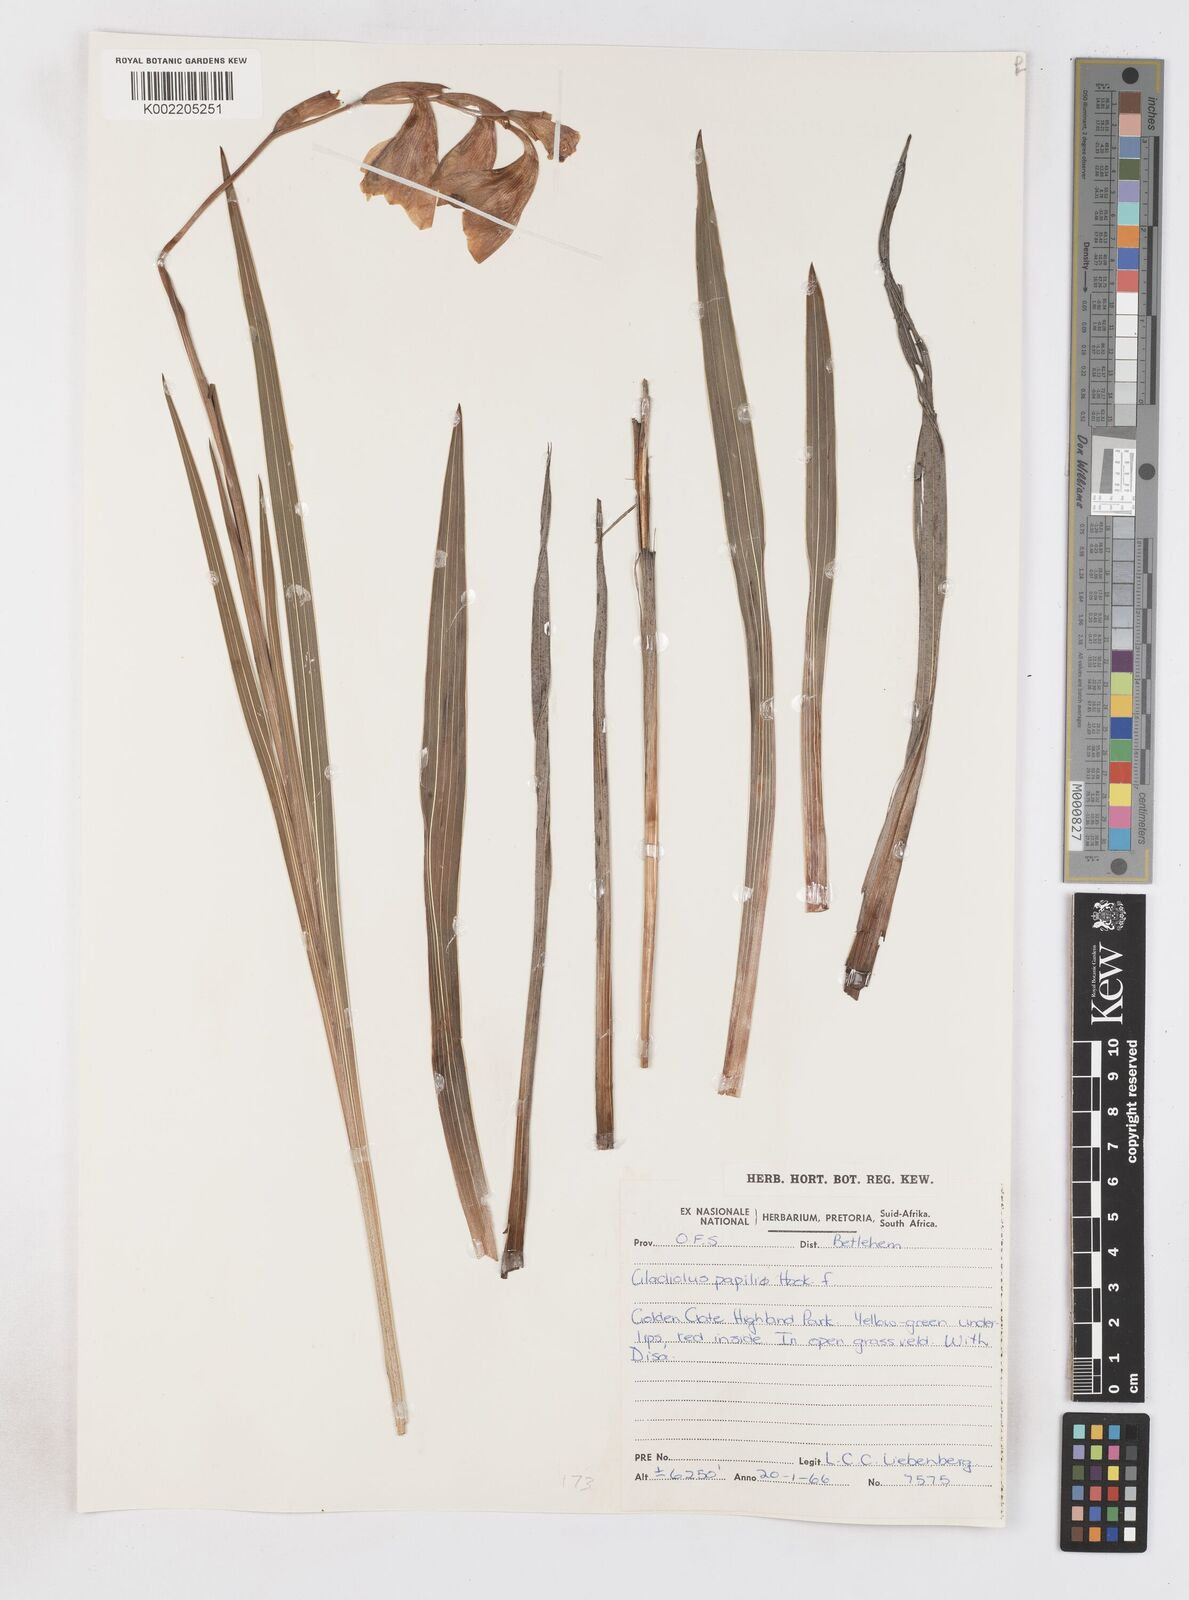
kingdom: Plantae
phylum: Tracheophyta
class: Liliopsida
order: Asparagales
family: Iridaceae
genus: Gladiolus
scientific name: Gladiolus papilio
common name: Goldblotch gladiolus
